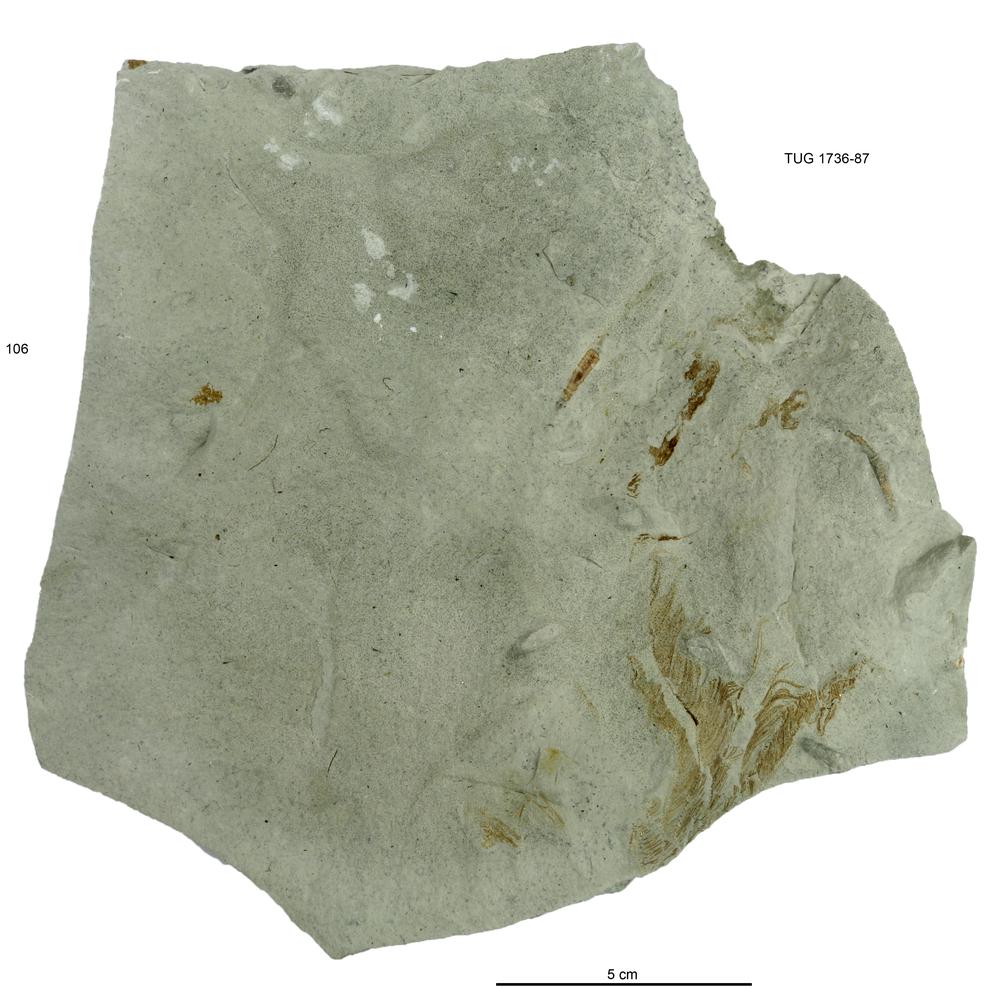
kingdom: Animalia
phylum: Echinodermata
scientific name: Echinodermata
